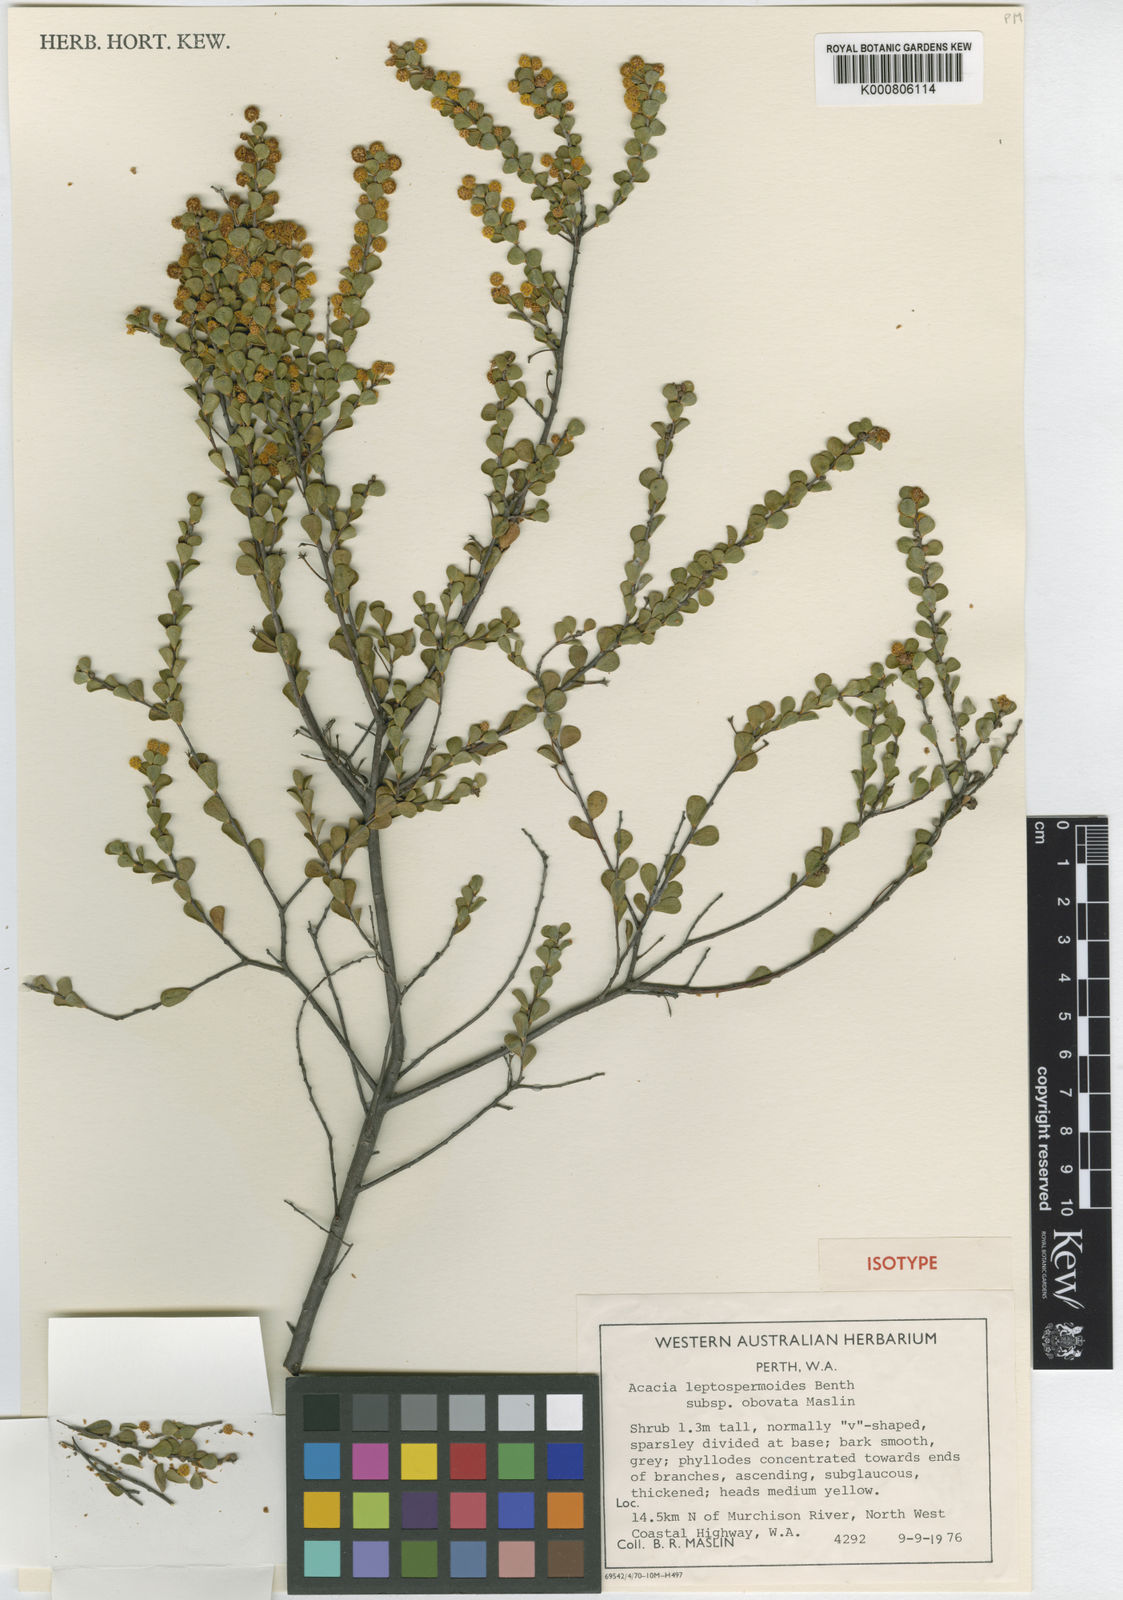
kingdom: Plantae
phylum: Tracheophyta
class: Magnoliopsida
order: Fabales
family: Fabaceae
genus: Acacia
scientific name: Acacia leptospermoides
